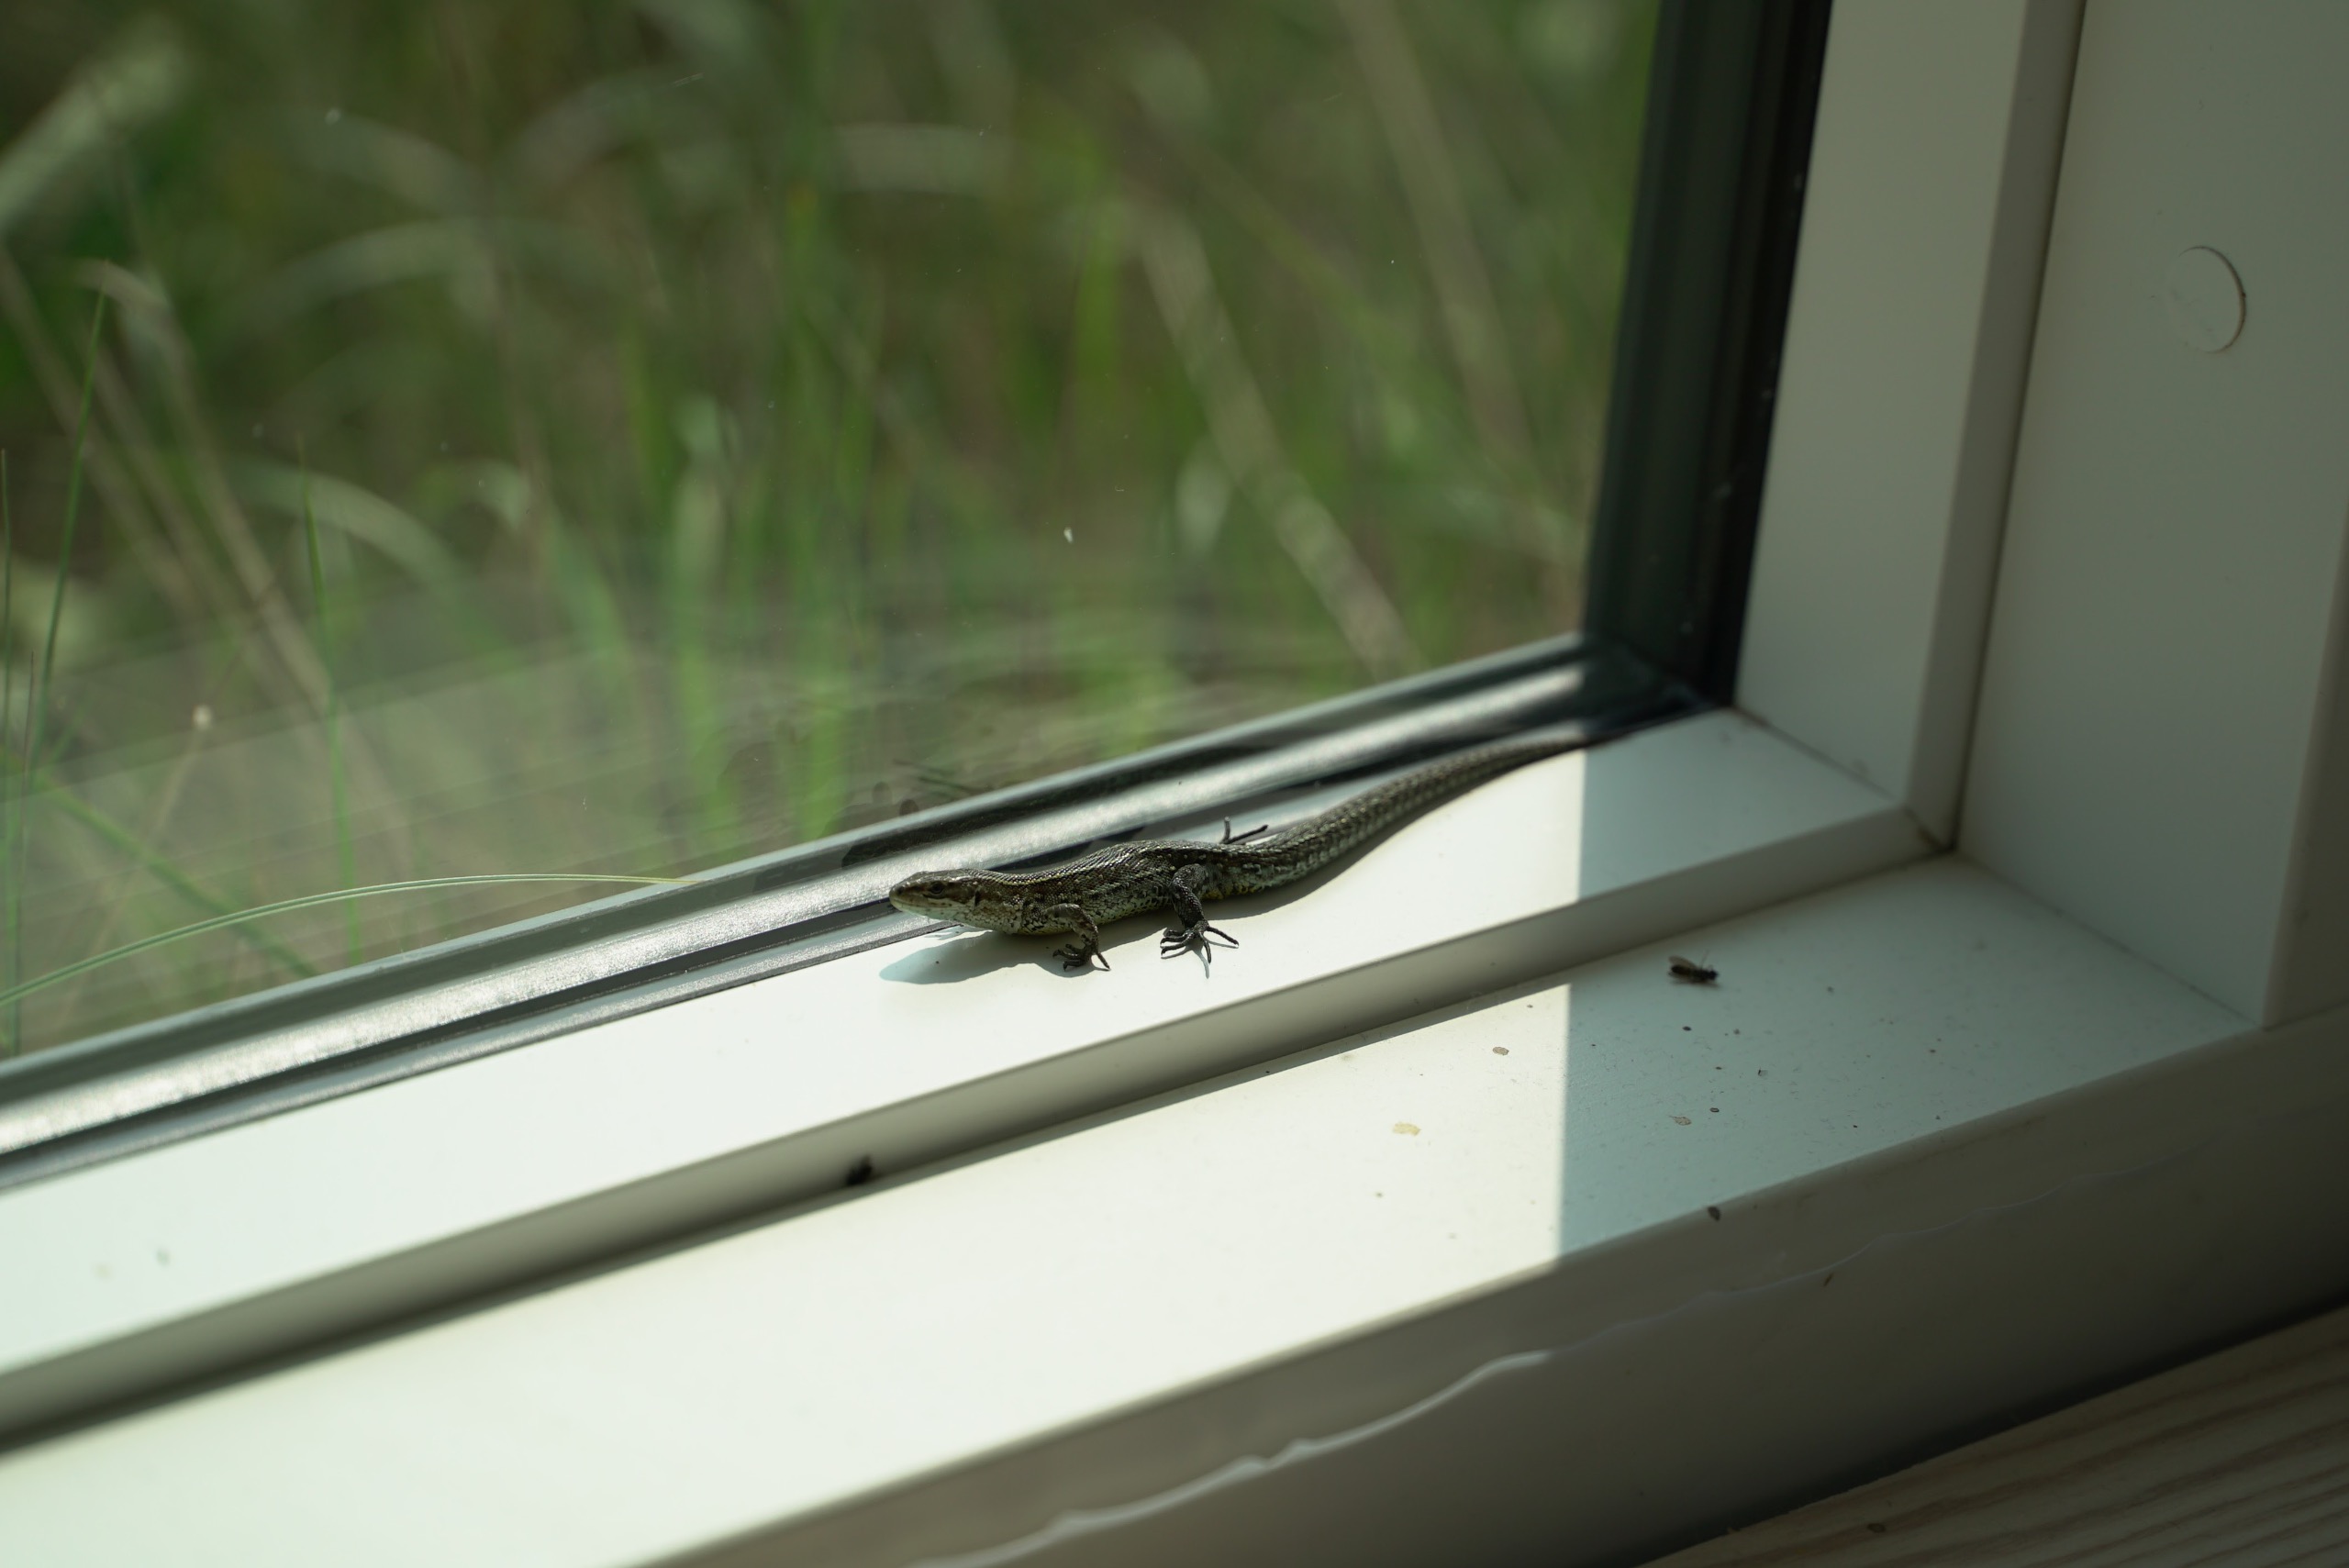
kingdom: Animalia
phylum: Chordata
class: Squamata
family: Lacertidae
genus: Zootoca
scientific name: Zootoca vivipara
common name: Skovfirben
